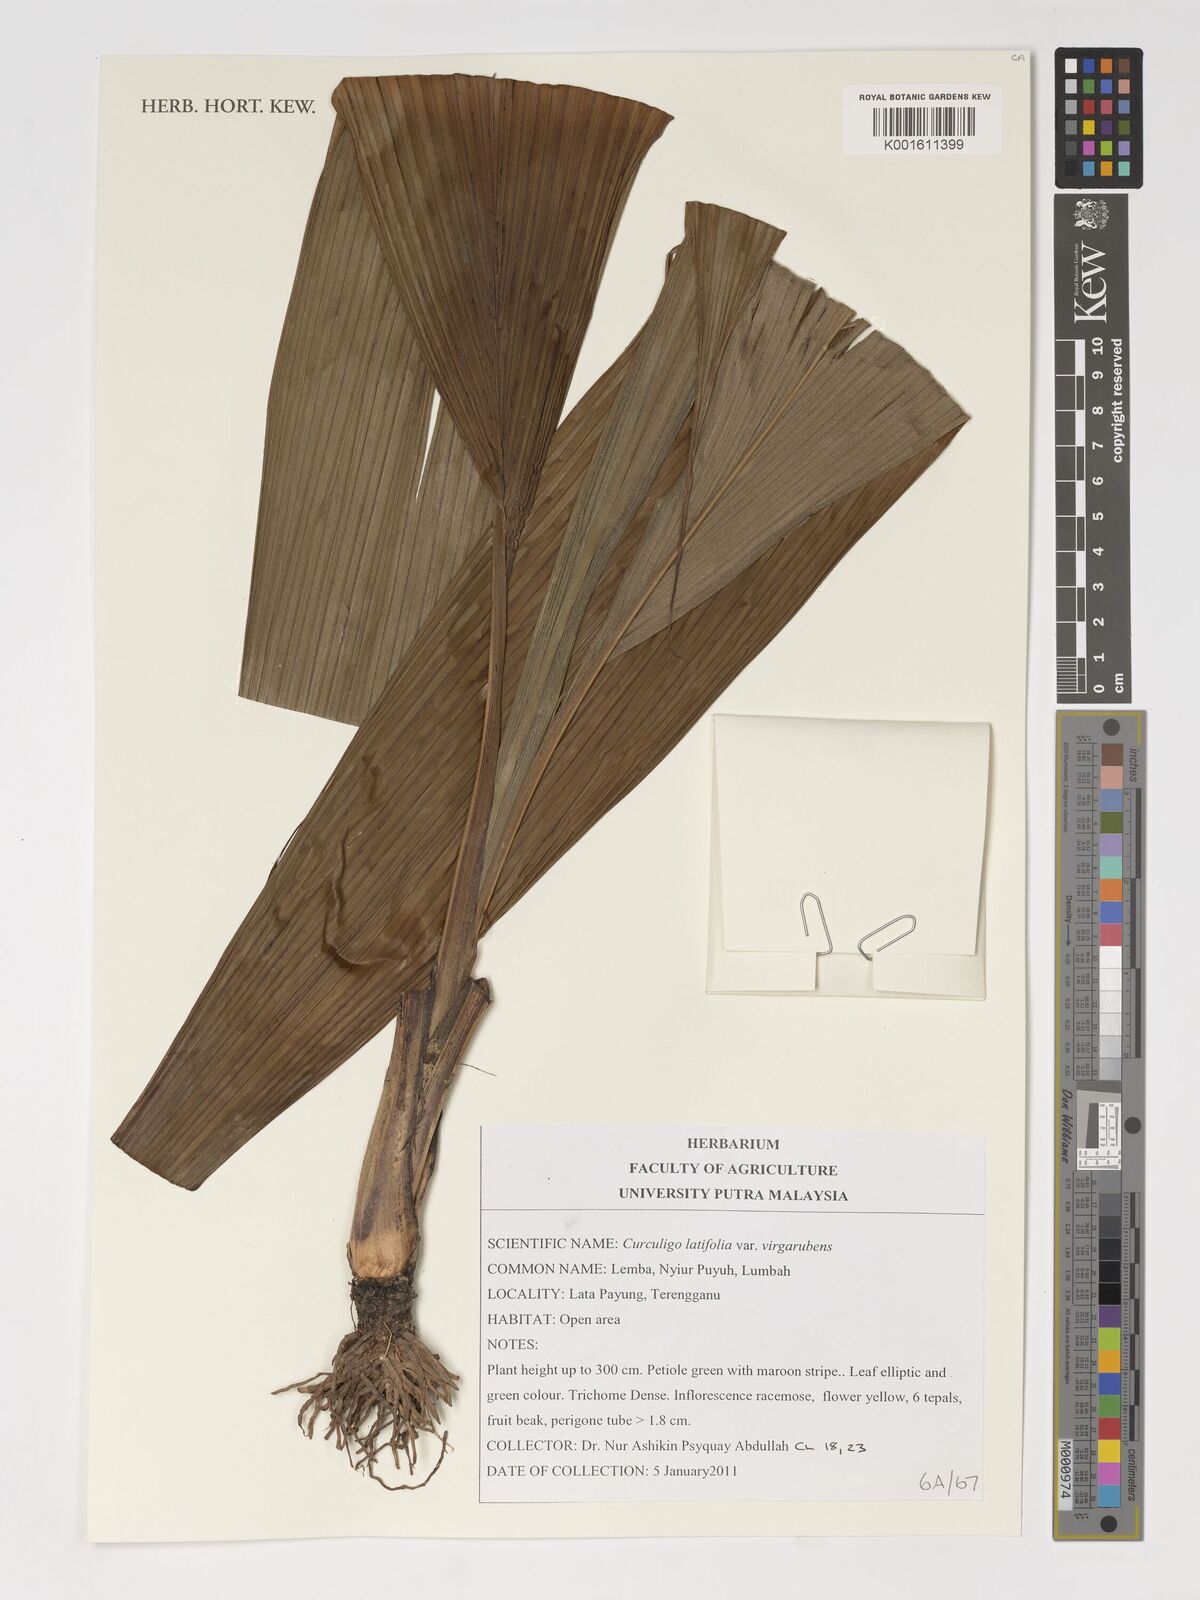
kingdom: Plantae
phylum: Tracheophyta
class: Liliopsida
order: Asparagales
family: Hypoxidaceae
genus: Curculigo
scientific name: Curculigo latifolia
